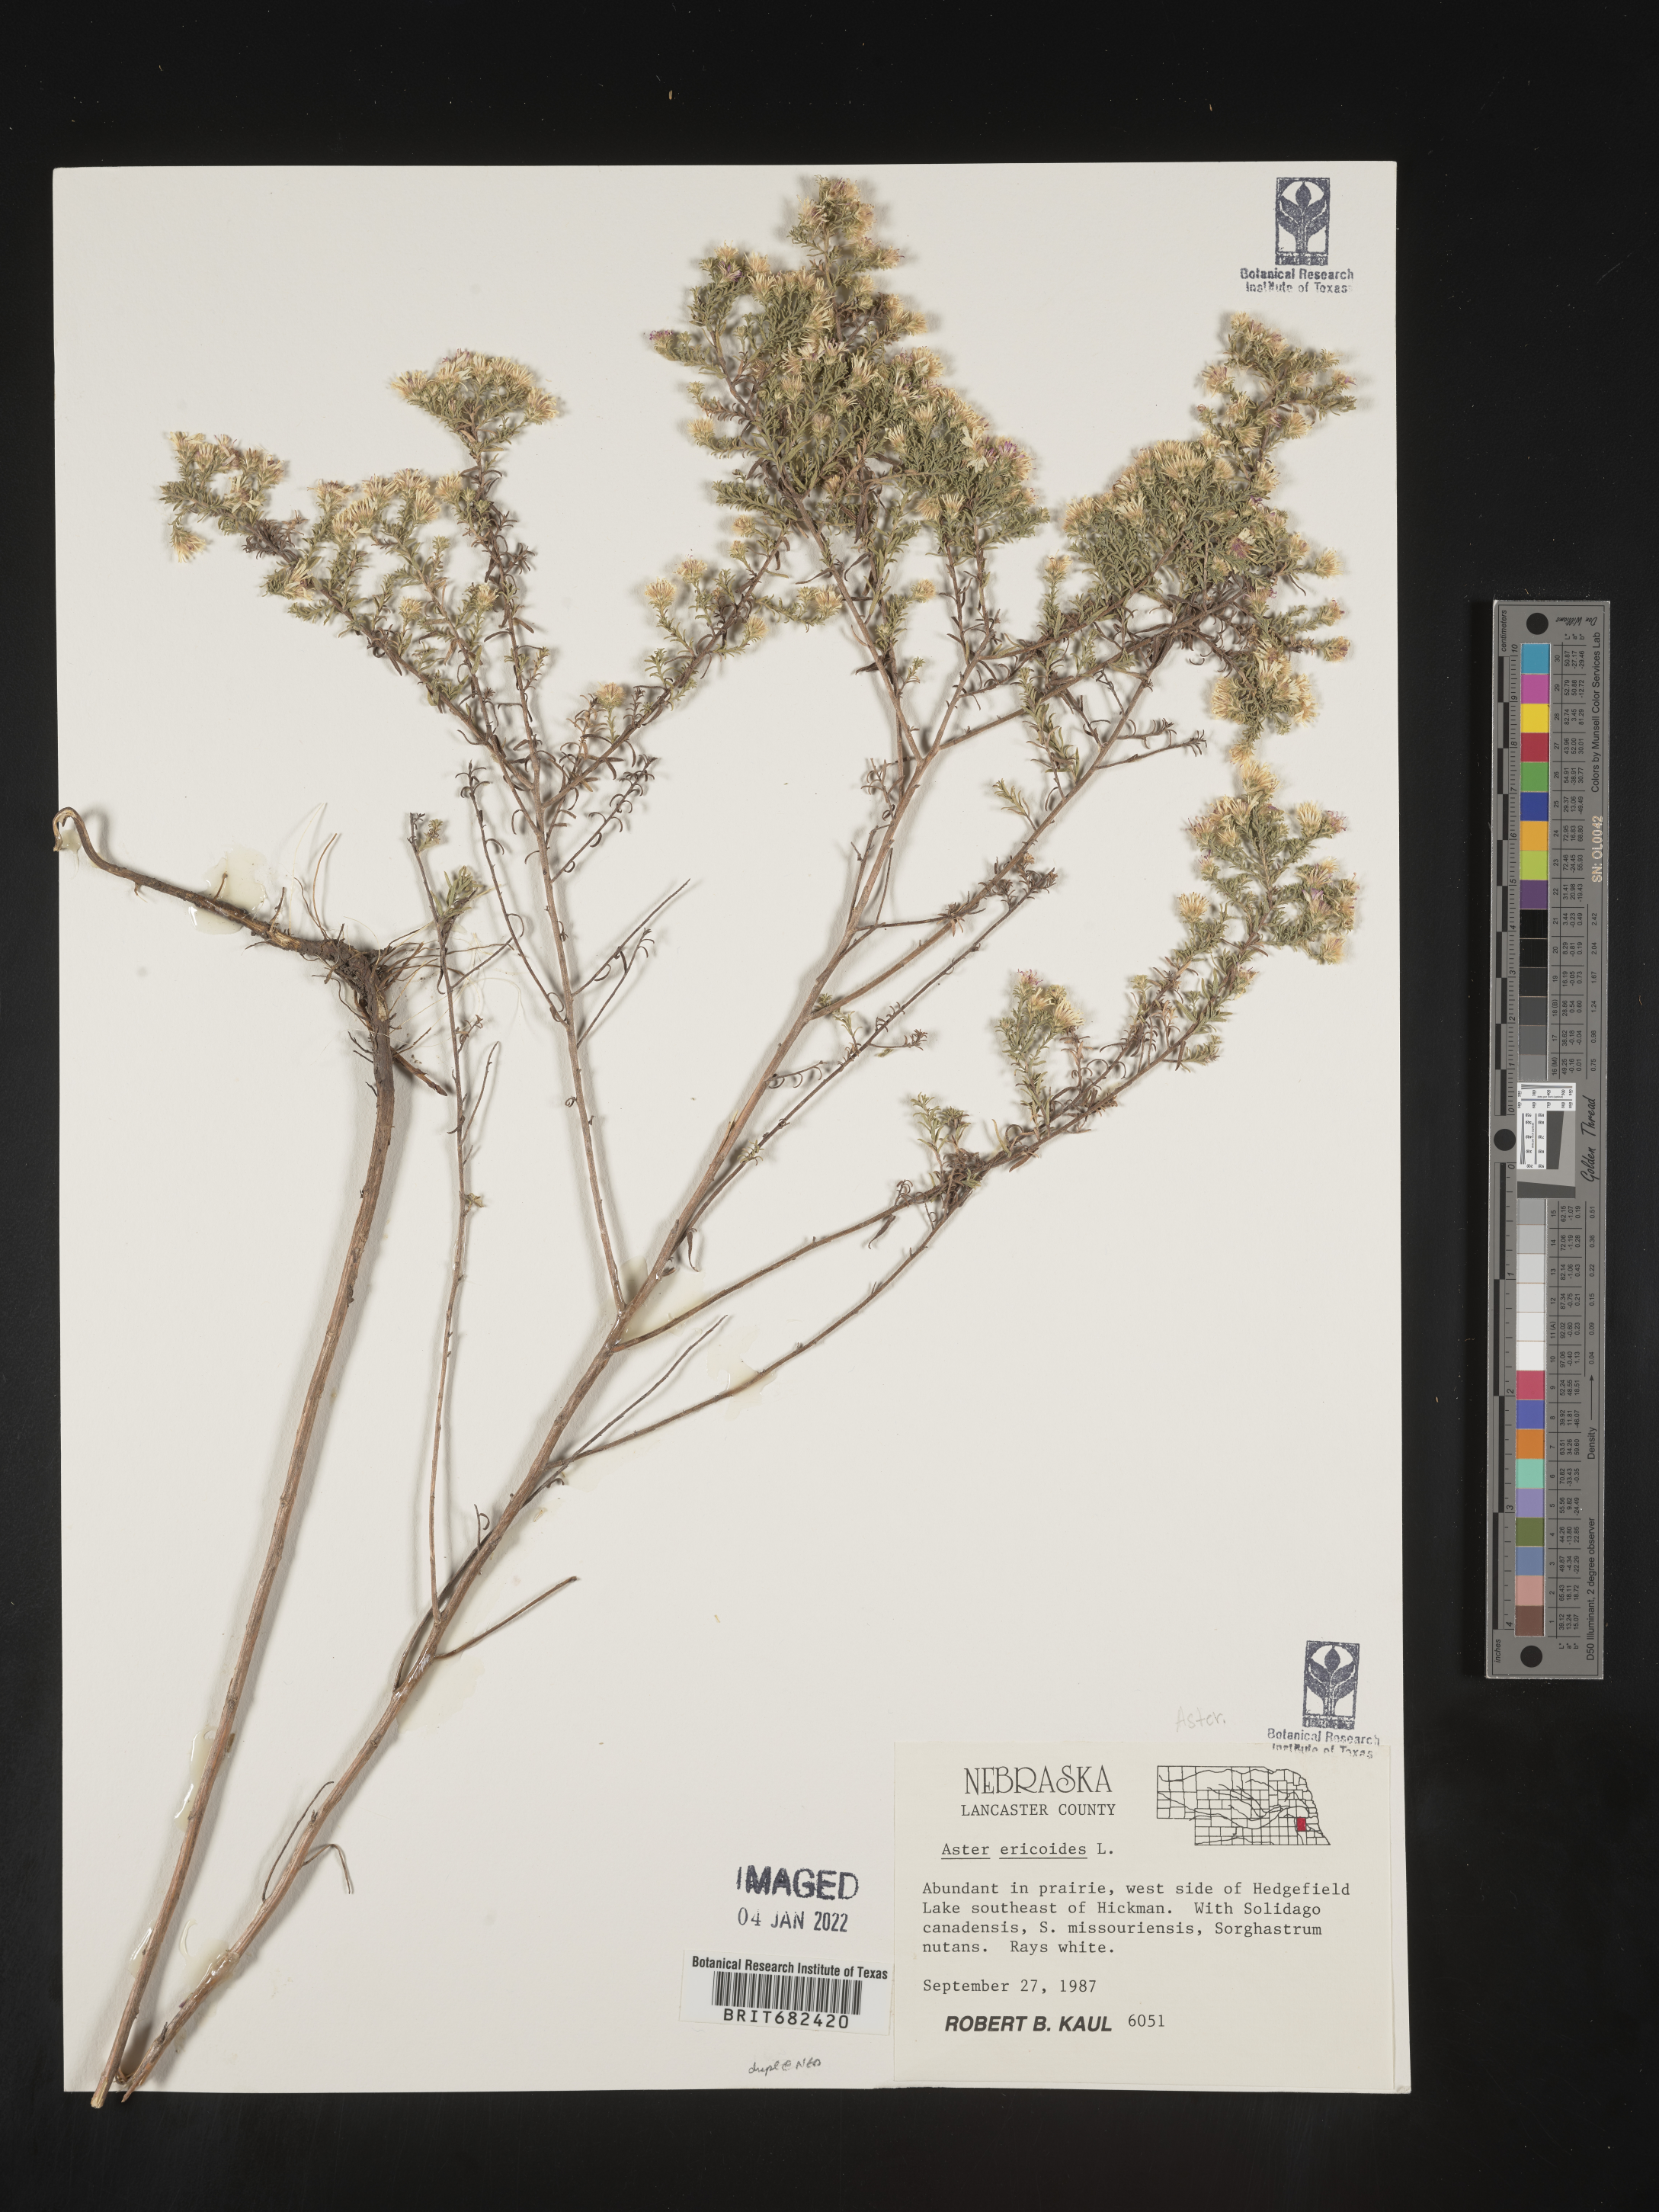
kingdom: Plantae
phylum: Tracheophyta
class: Magnoliopsida
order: Asterales
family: Asteraceae
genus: Aster
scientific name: Aster
